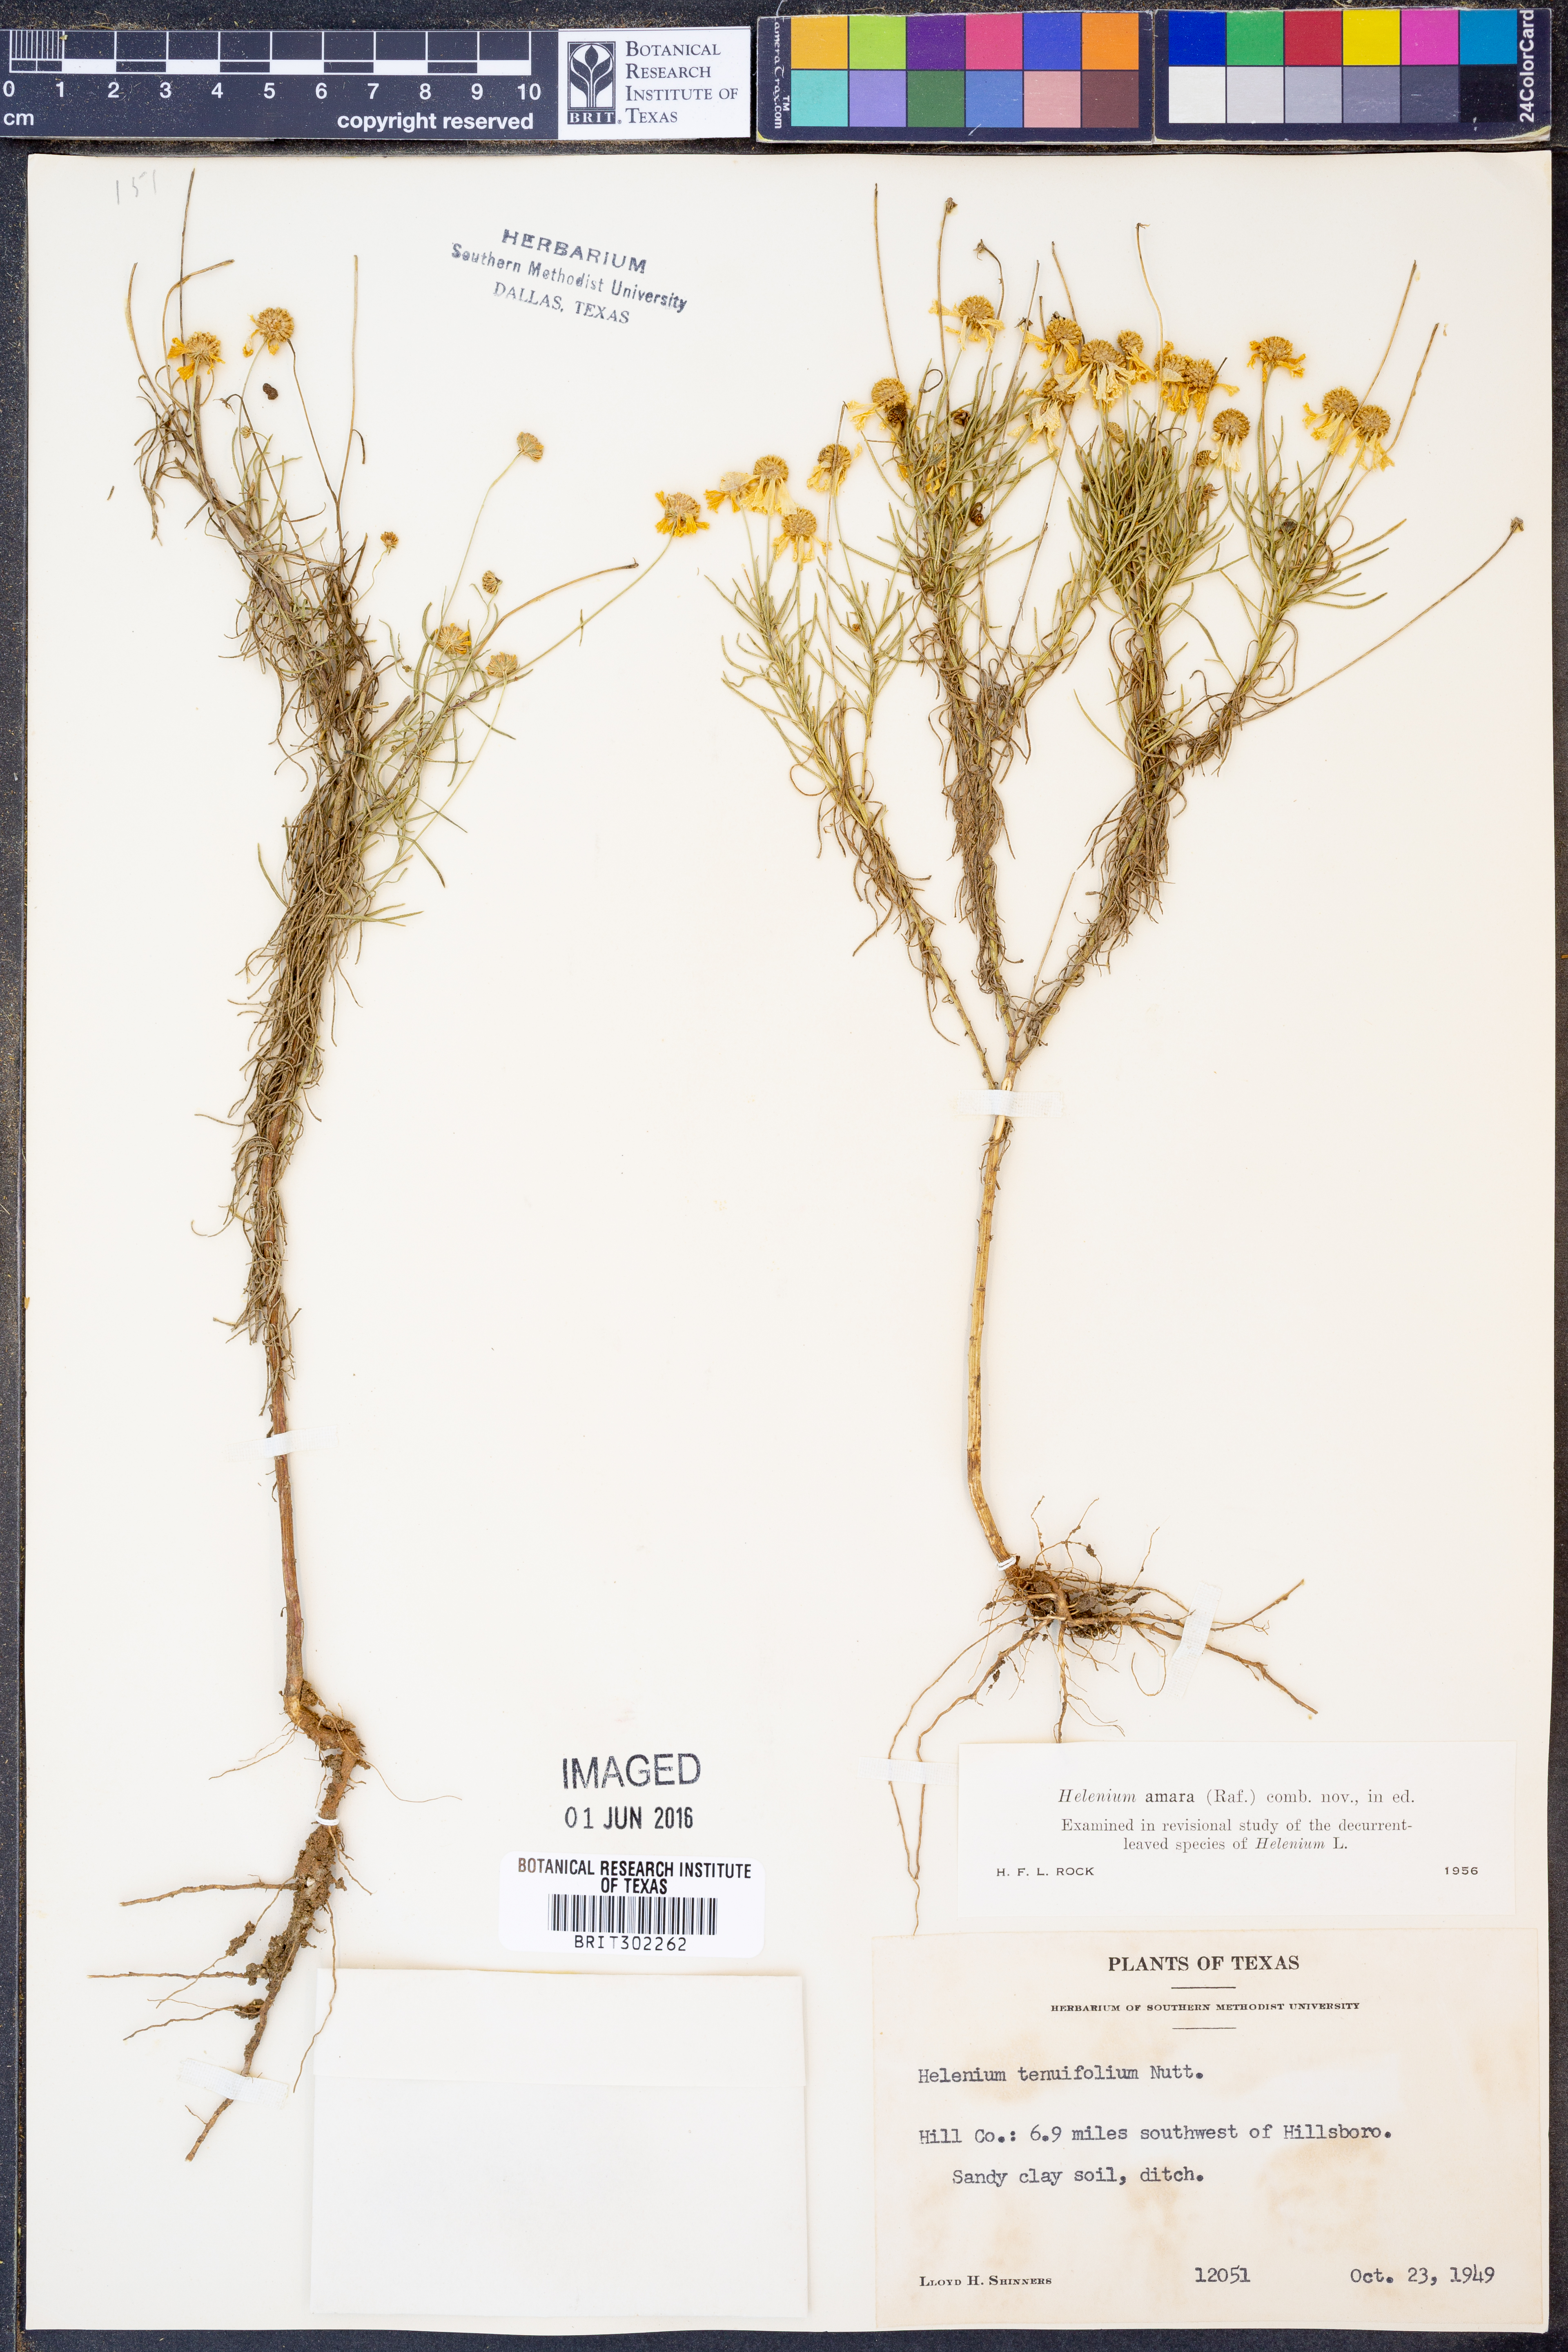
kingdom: Plantae
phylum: Tracheophyta
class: Magnoliopsida
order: Asterales
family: Asteraceae
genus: Helenium
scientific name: Helenium amarum
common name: Bitter sneezeweed
